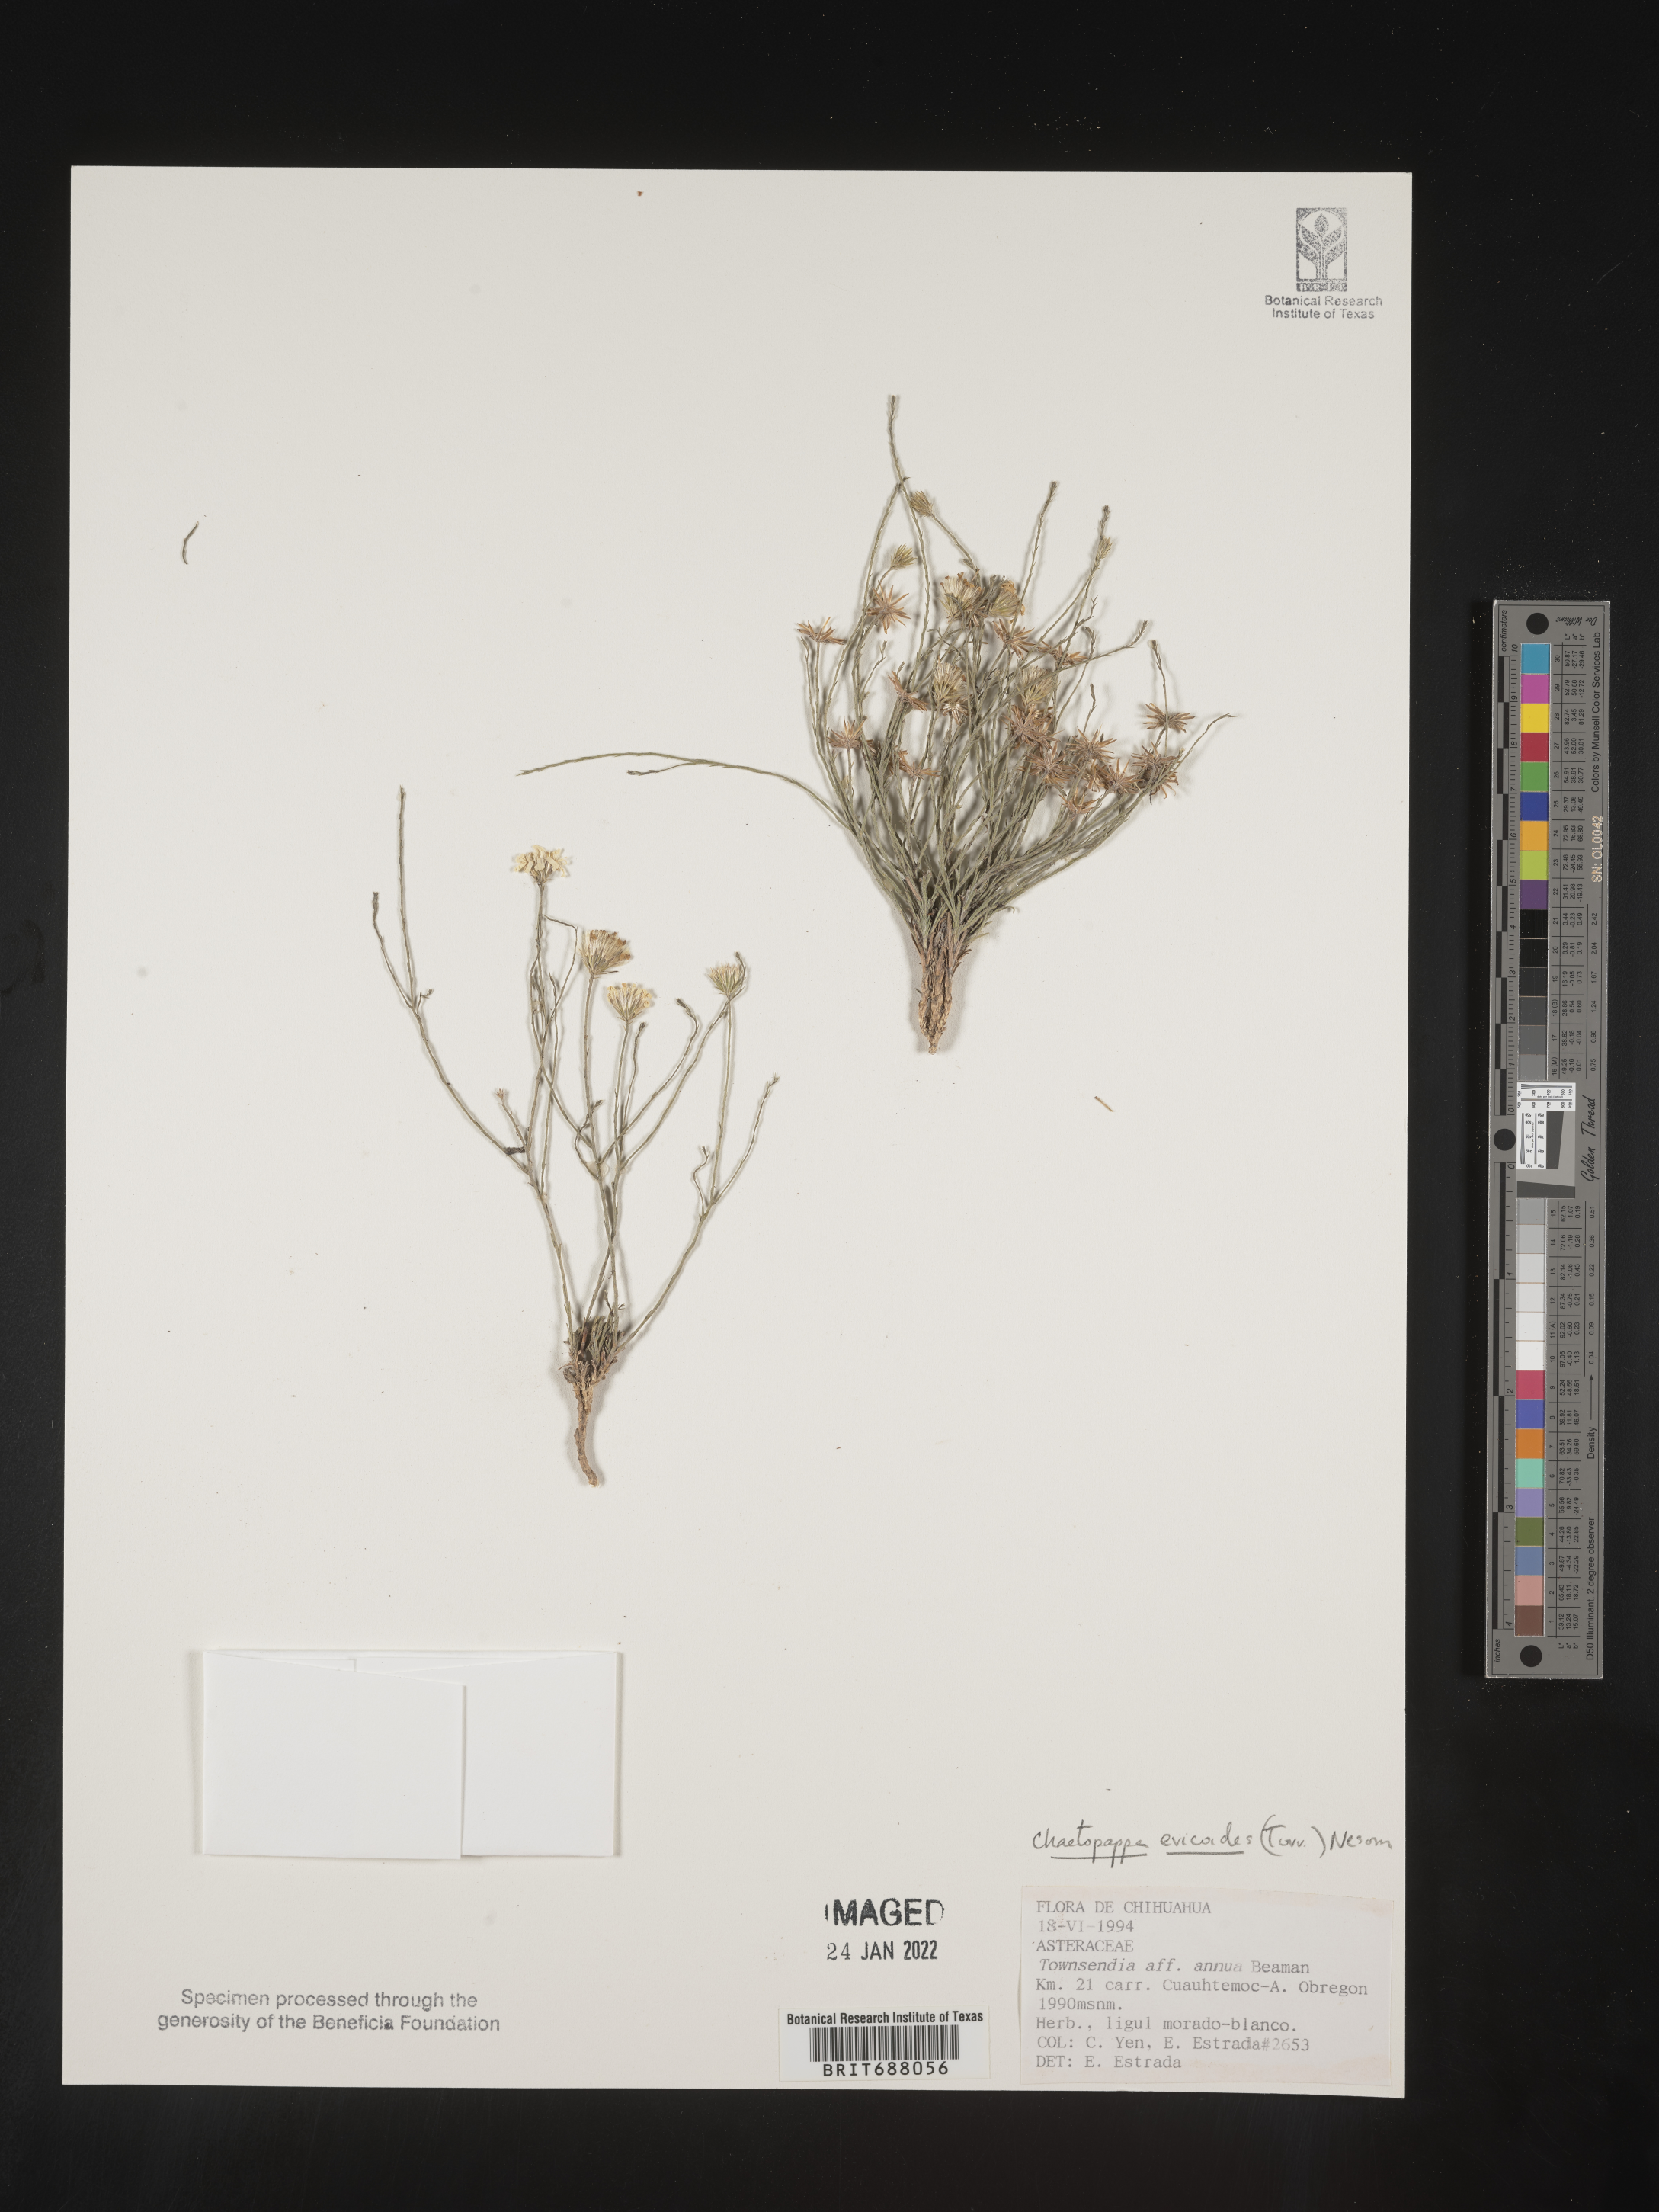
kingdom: Plantae
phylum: Tracheophyta
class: Magnoliopsida
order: Asterales
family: Asteraceae
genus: Chaetopappa
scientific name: Chaetopappa
